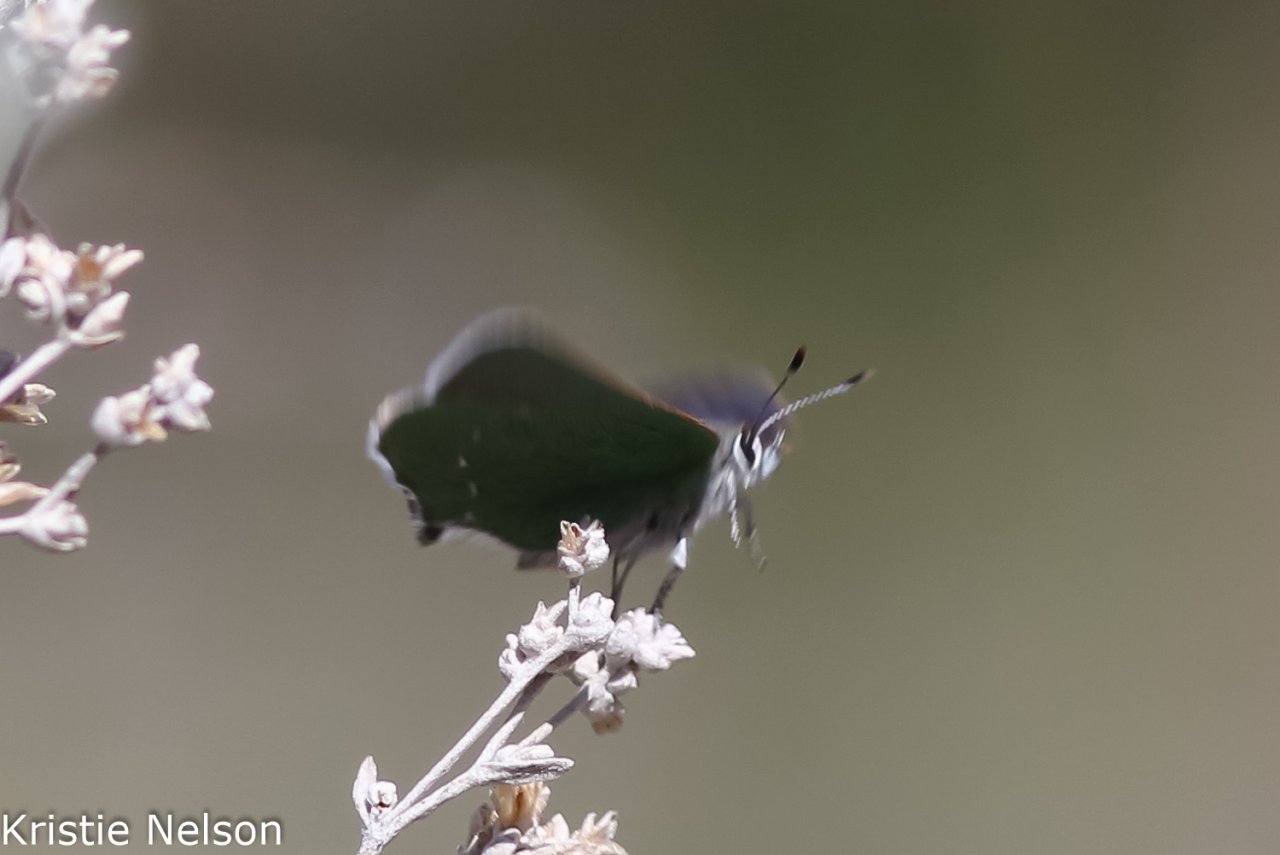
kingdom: Animalia
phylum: Arthropoda
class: Insecta
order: Lepidoptera
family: Lycaenidae
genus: Thecla
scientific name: Thecla sheridanii
